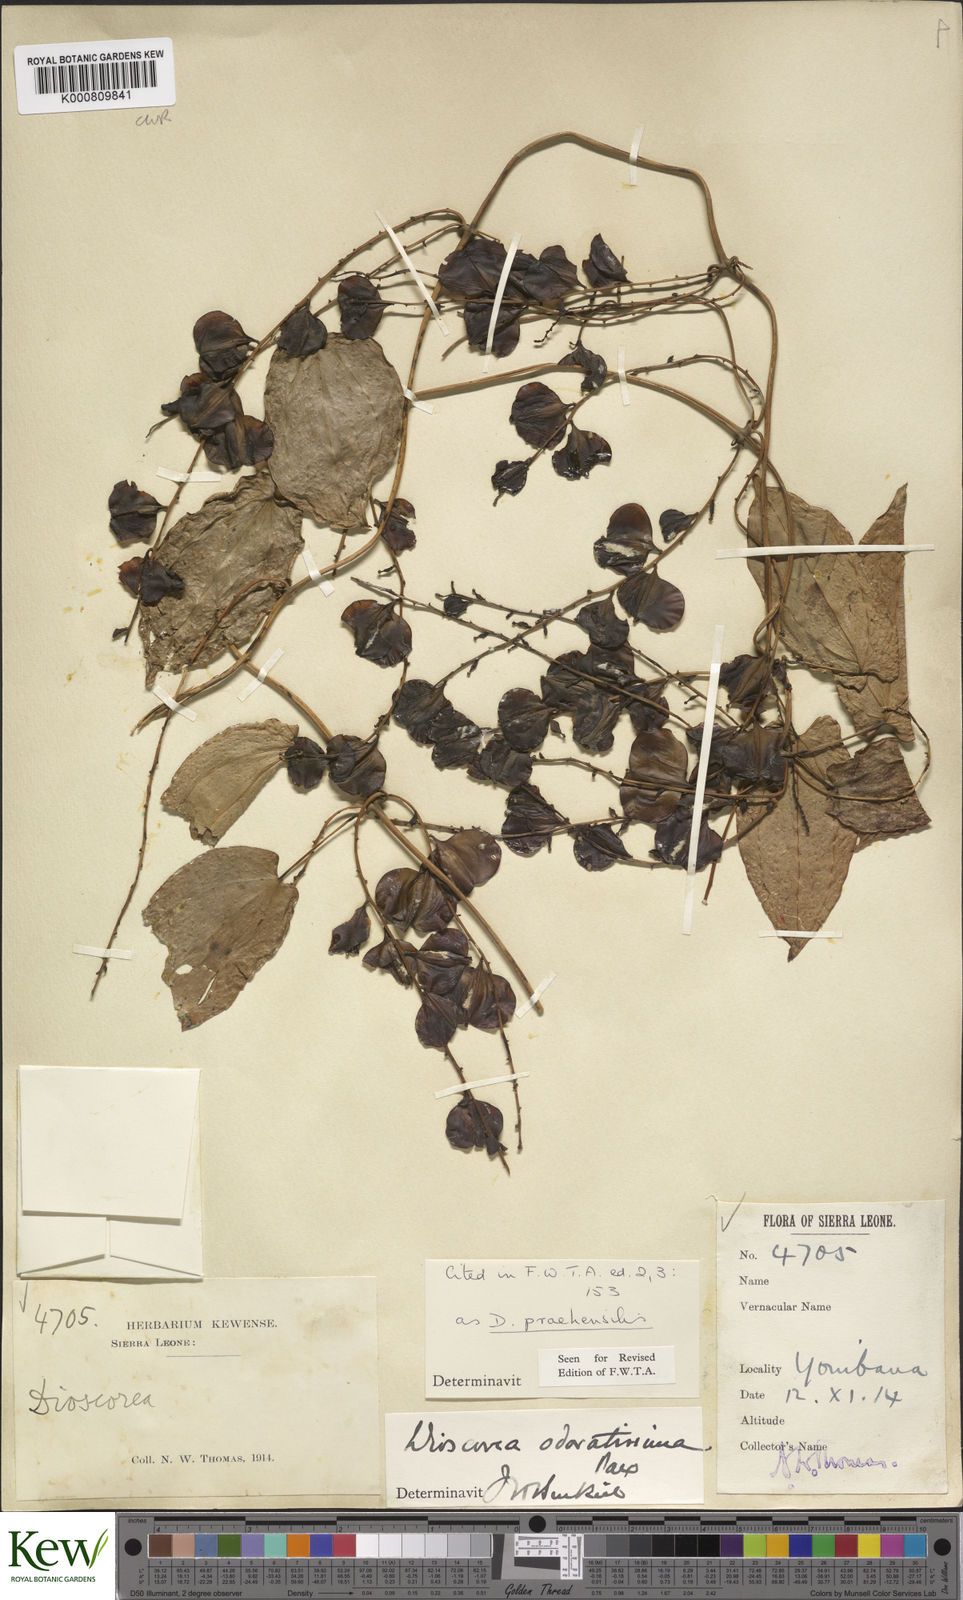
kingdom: Plantae
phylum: Tracheophyta
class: Liliopsida
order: Dioscoreales
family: Dioscoreaceae
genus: Dioscorea
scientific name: Dioscorea praehensilis
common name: Bush yam
